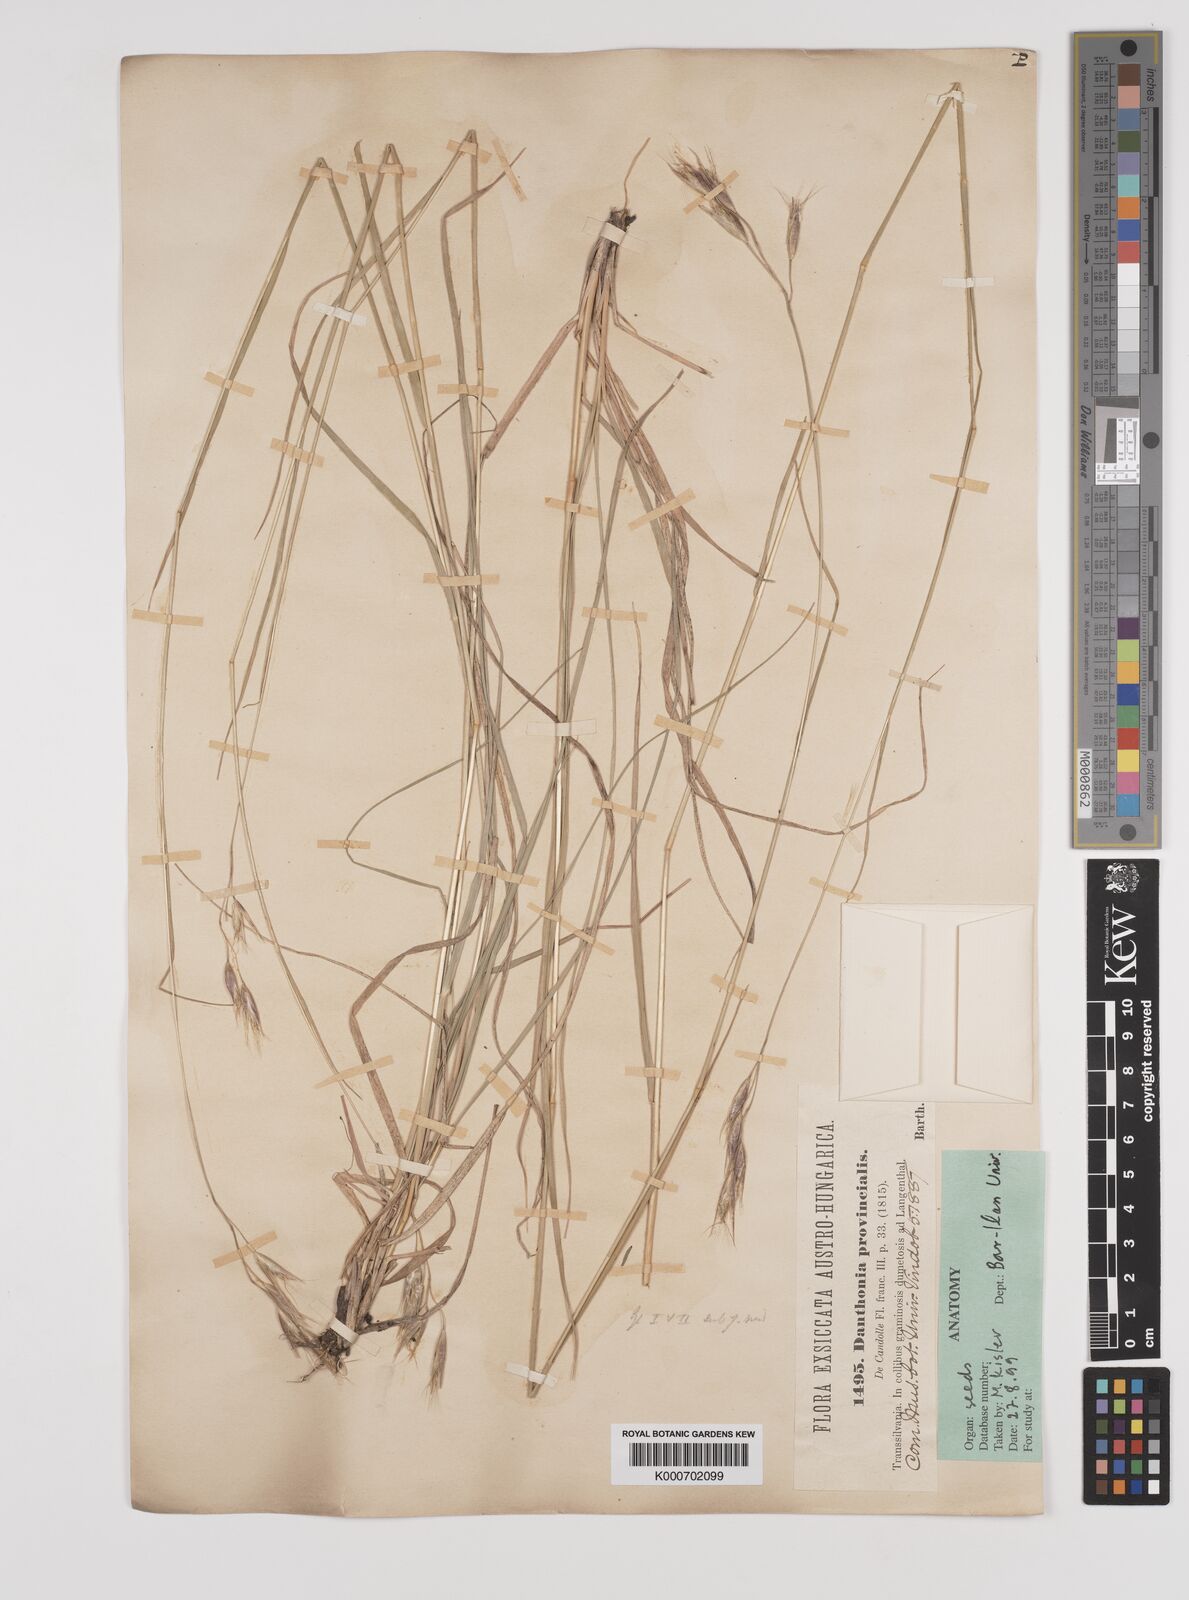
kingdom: Plantae
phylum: Tracheophyta
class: Liliopsida
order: Poales
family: Poaceae
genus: Danthonia
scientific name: Danthonia alpina
